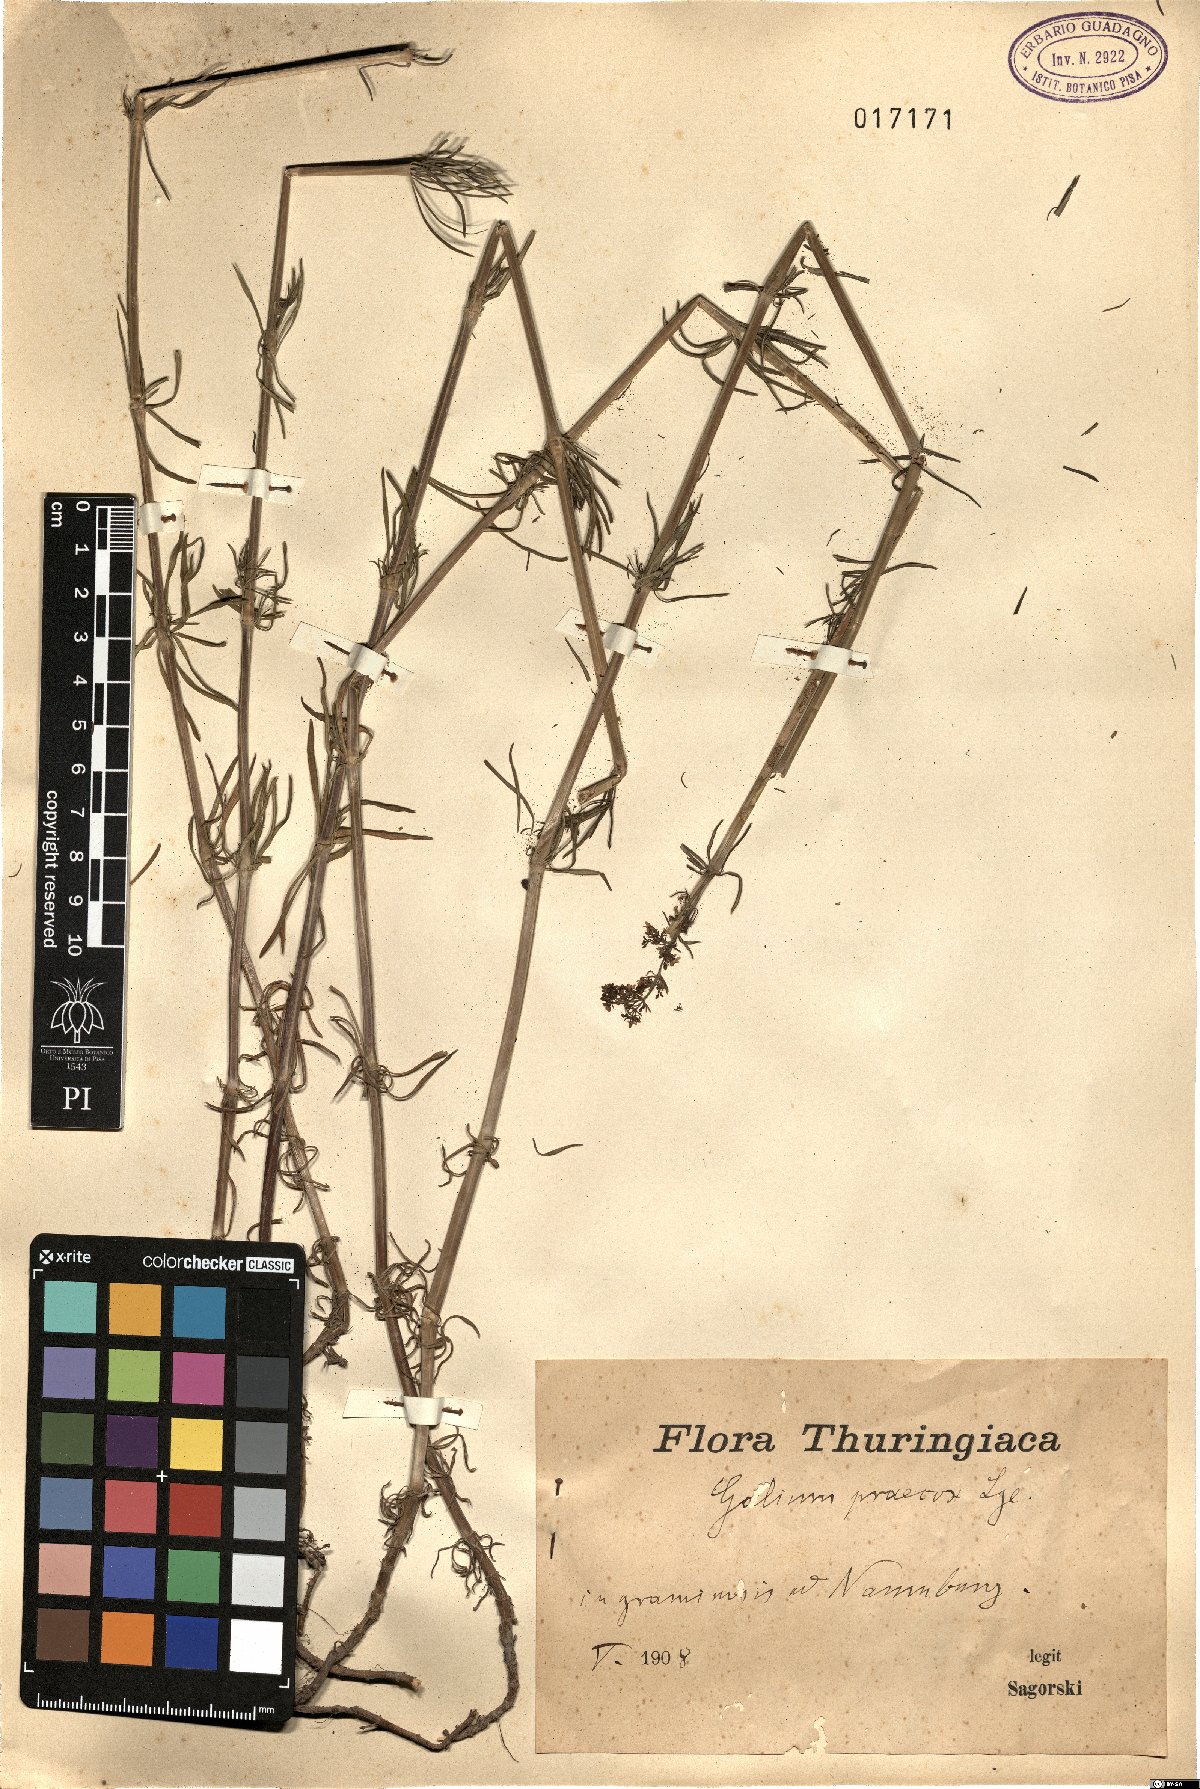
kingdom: Plantae
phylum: Tracheophyta
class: Magnoliopsida
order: Gentianales
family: Rubiaceae
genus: Galium
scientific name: Galium verum
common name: Lady's bedstraw
